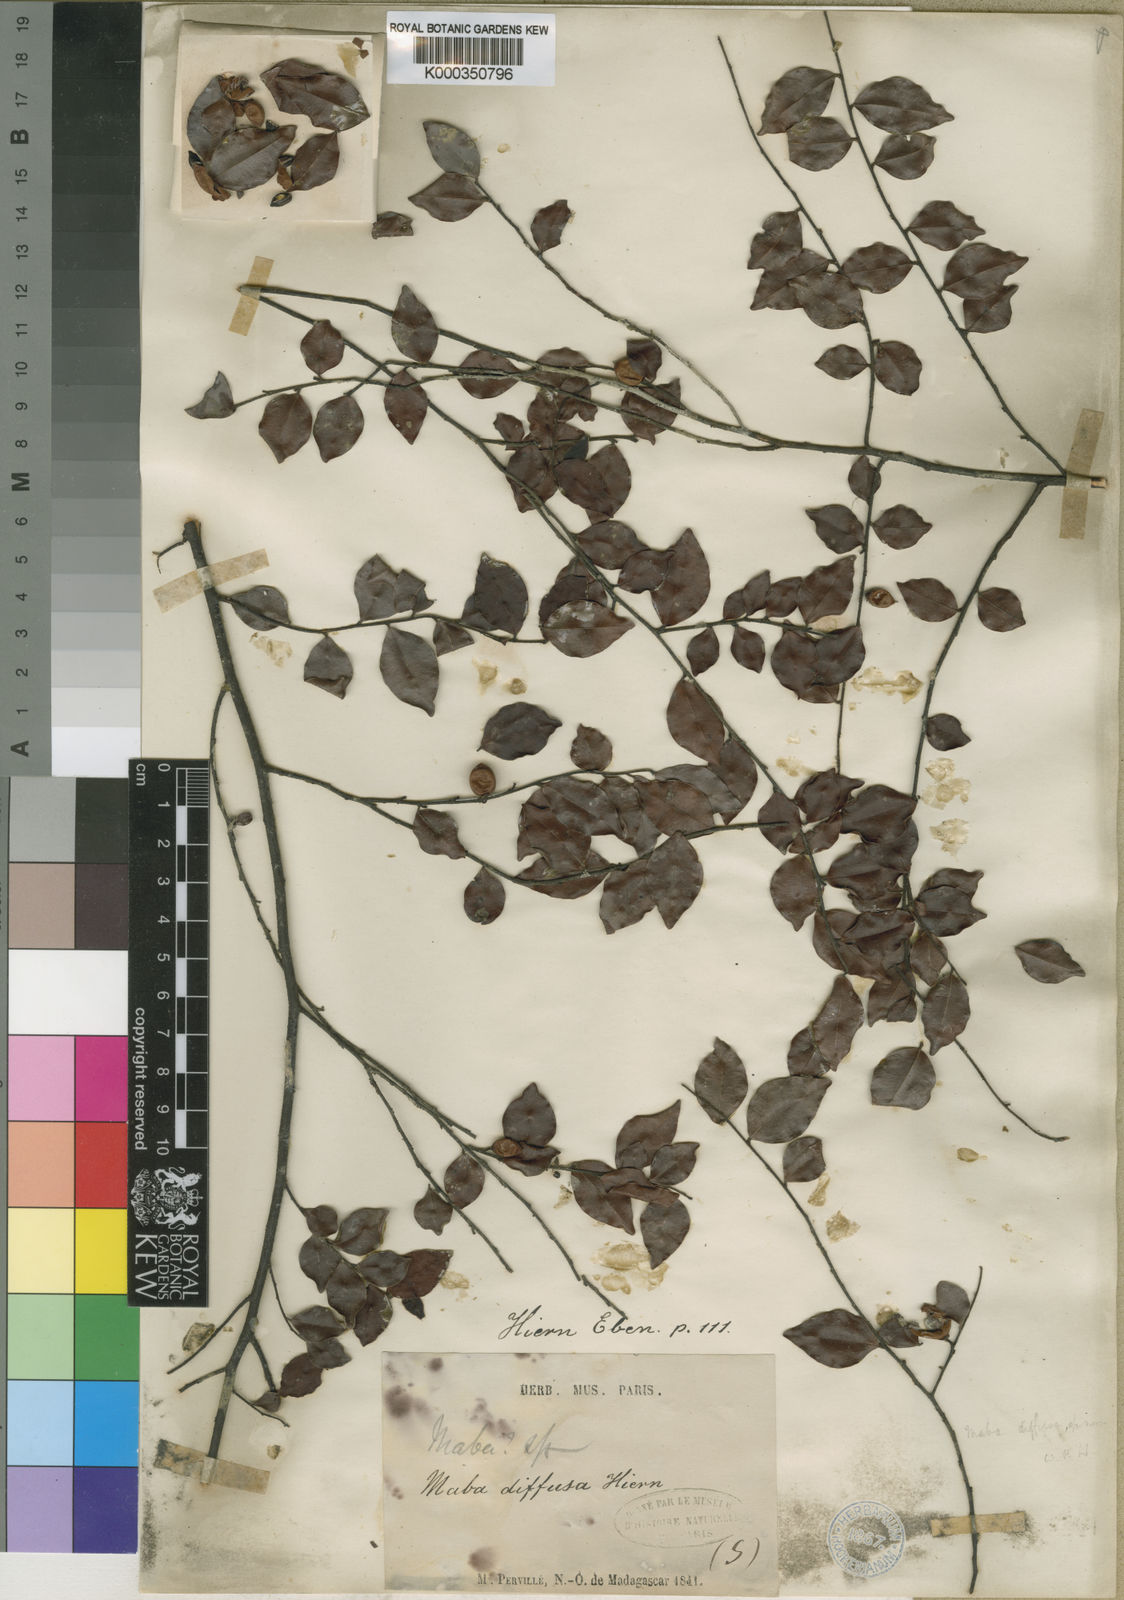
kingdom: Plantae
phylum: Tracheophyta
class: Magnoliopsida
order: Ericales
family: Ebenaceae
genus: Diospyros
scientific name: Diospyros
